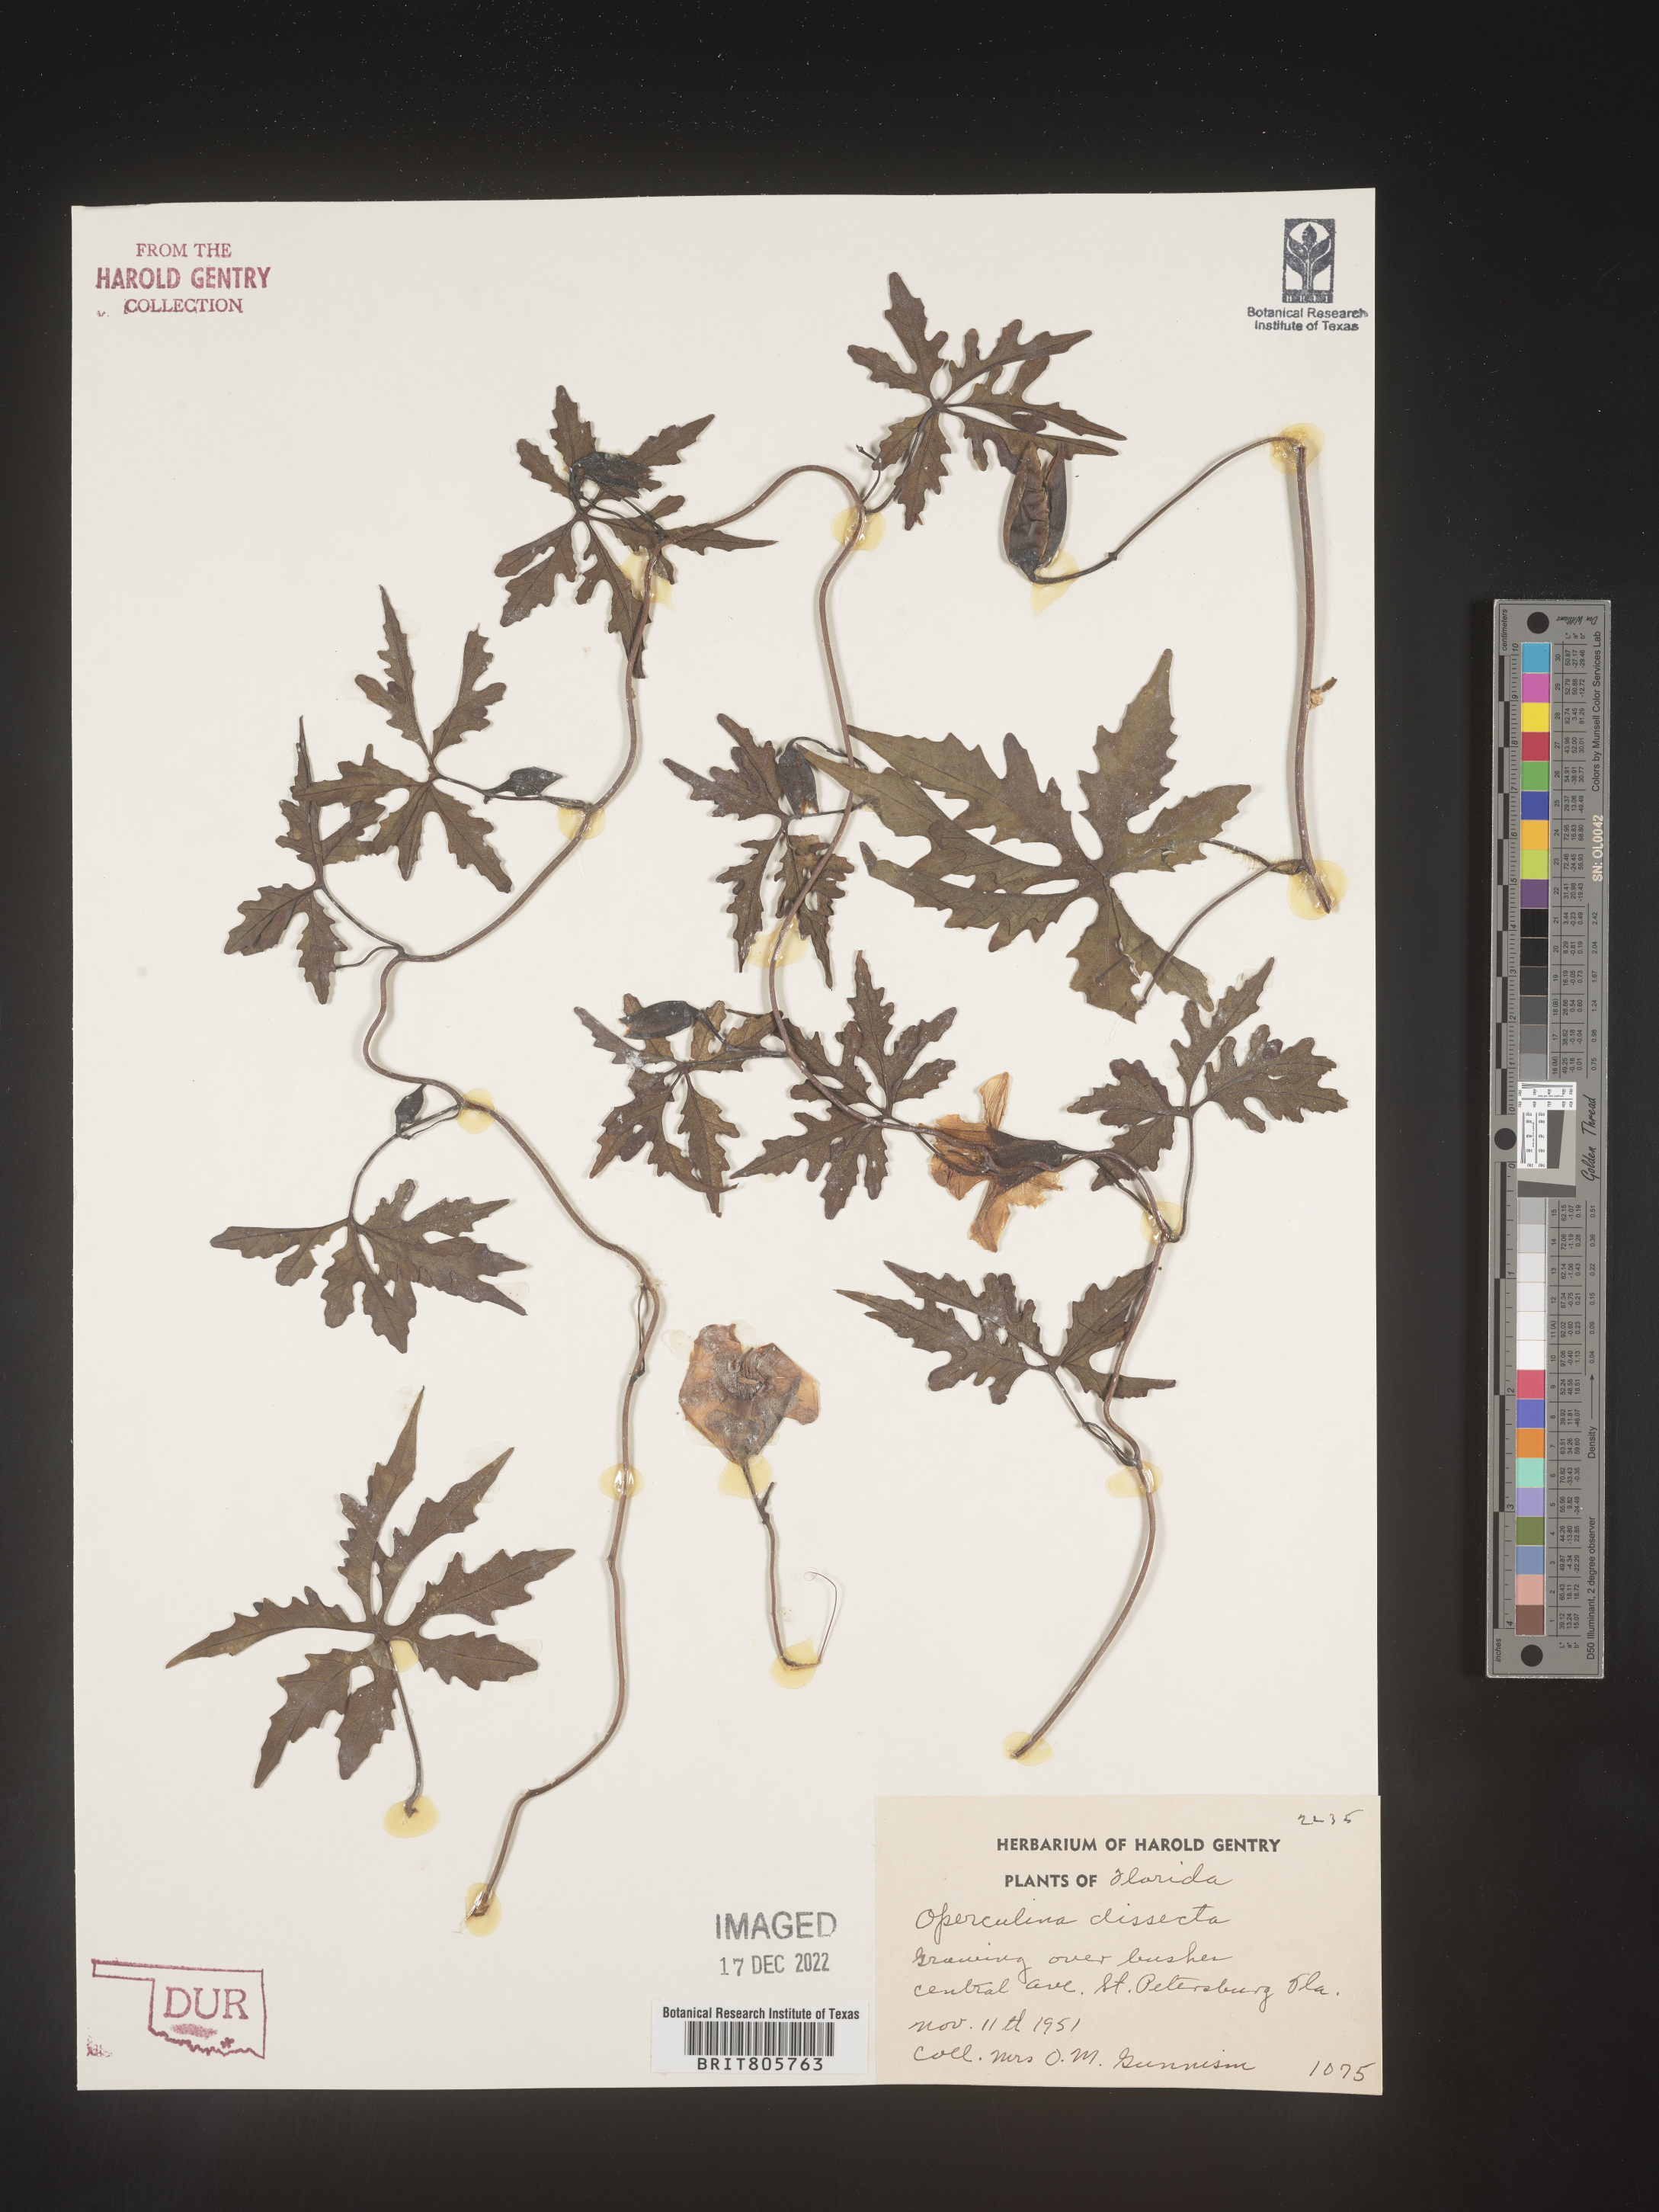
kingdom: Plantae
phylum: Tracheophyta
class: Magnoliopsida
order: Solanales
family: Convolvulaceae
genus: Operculina
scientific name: Operculina
